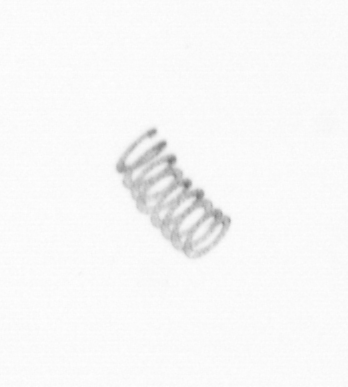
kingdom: Chromista
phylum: Ochrophyta
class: Bacillariophyceae
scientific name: Bacillariophyceae
